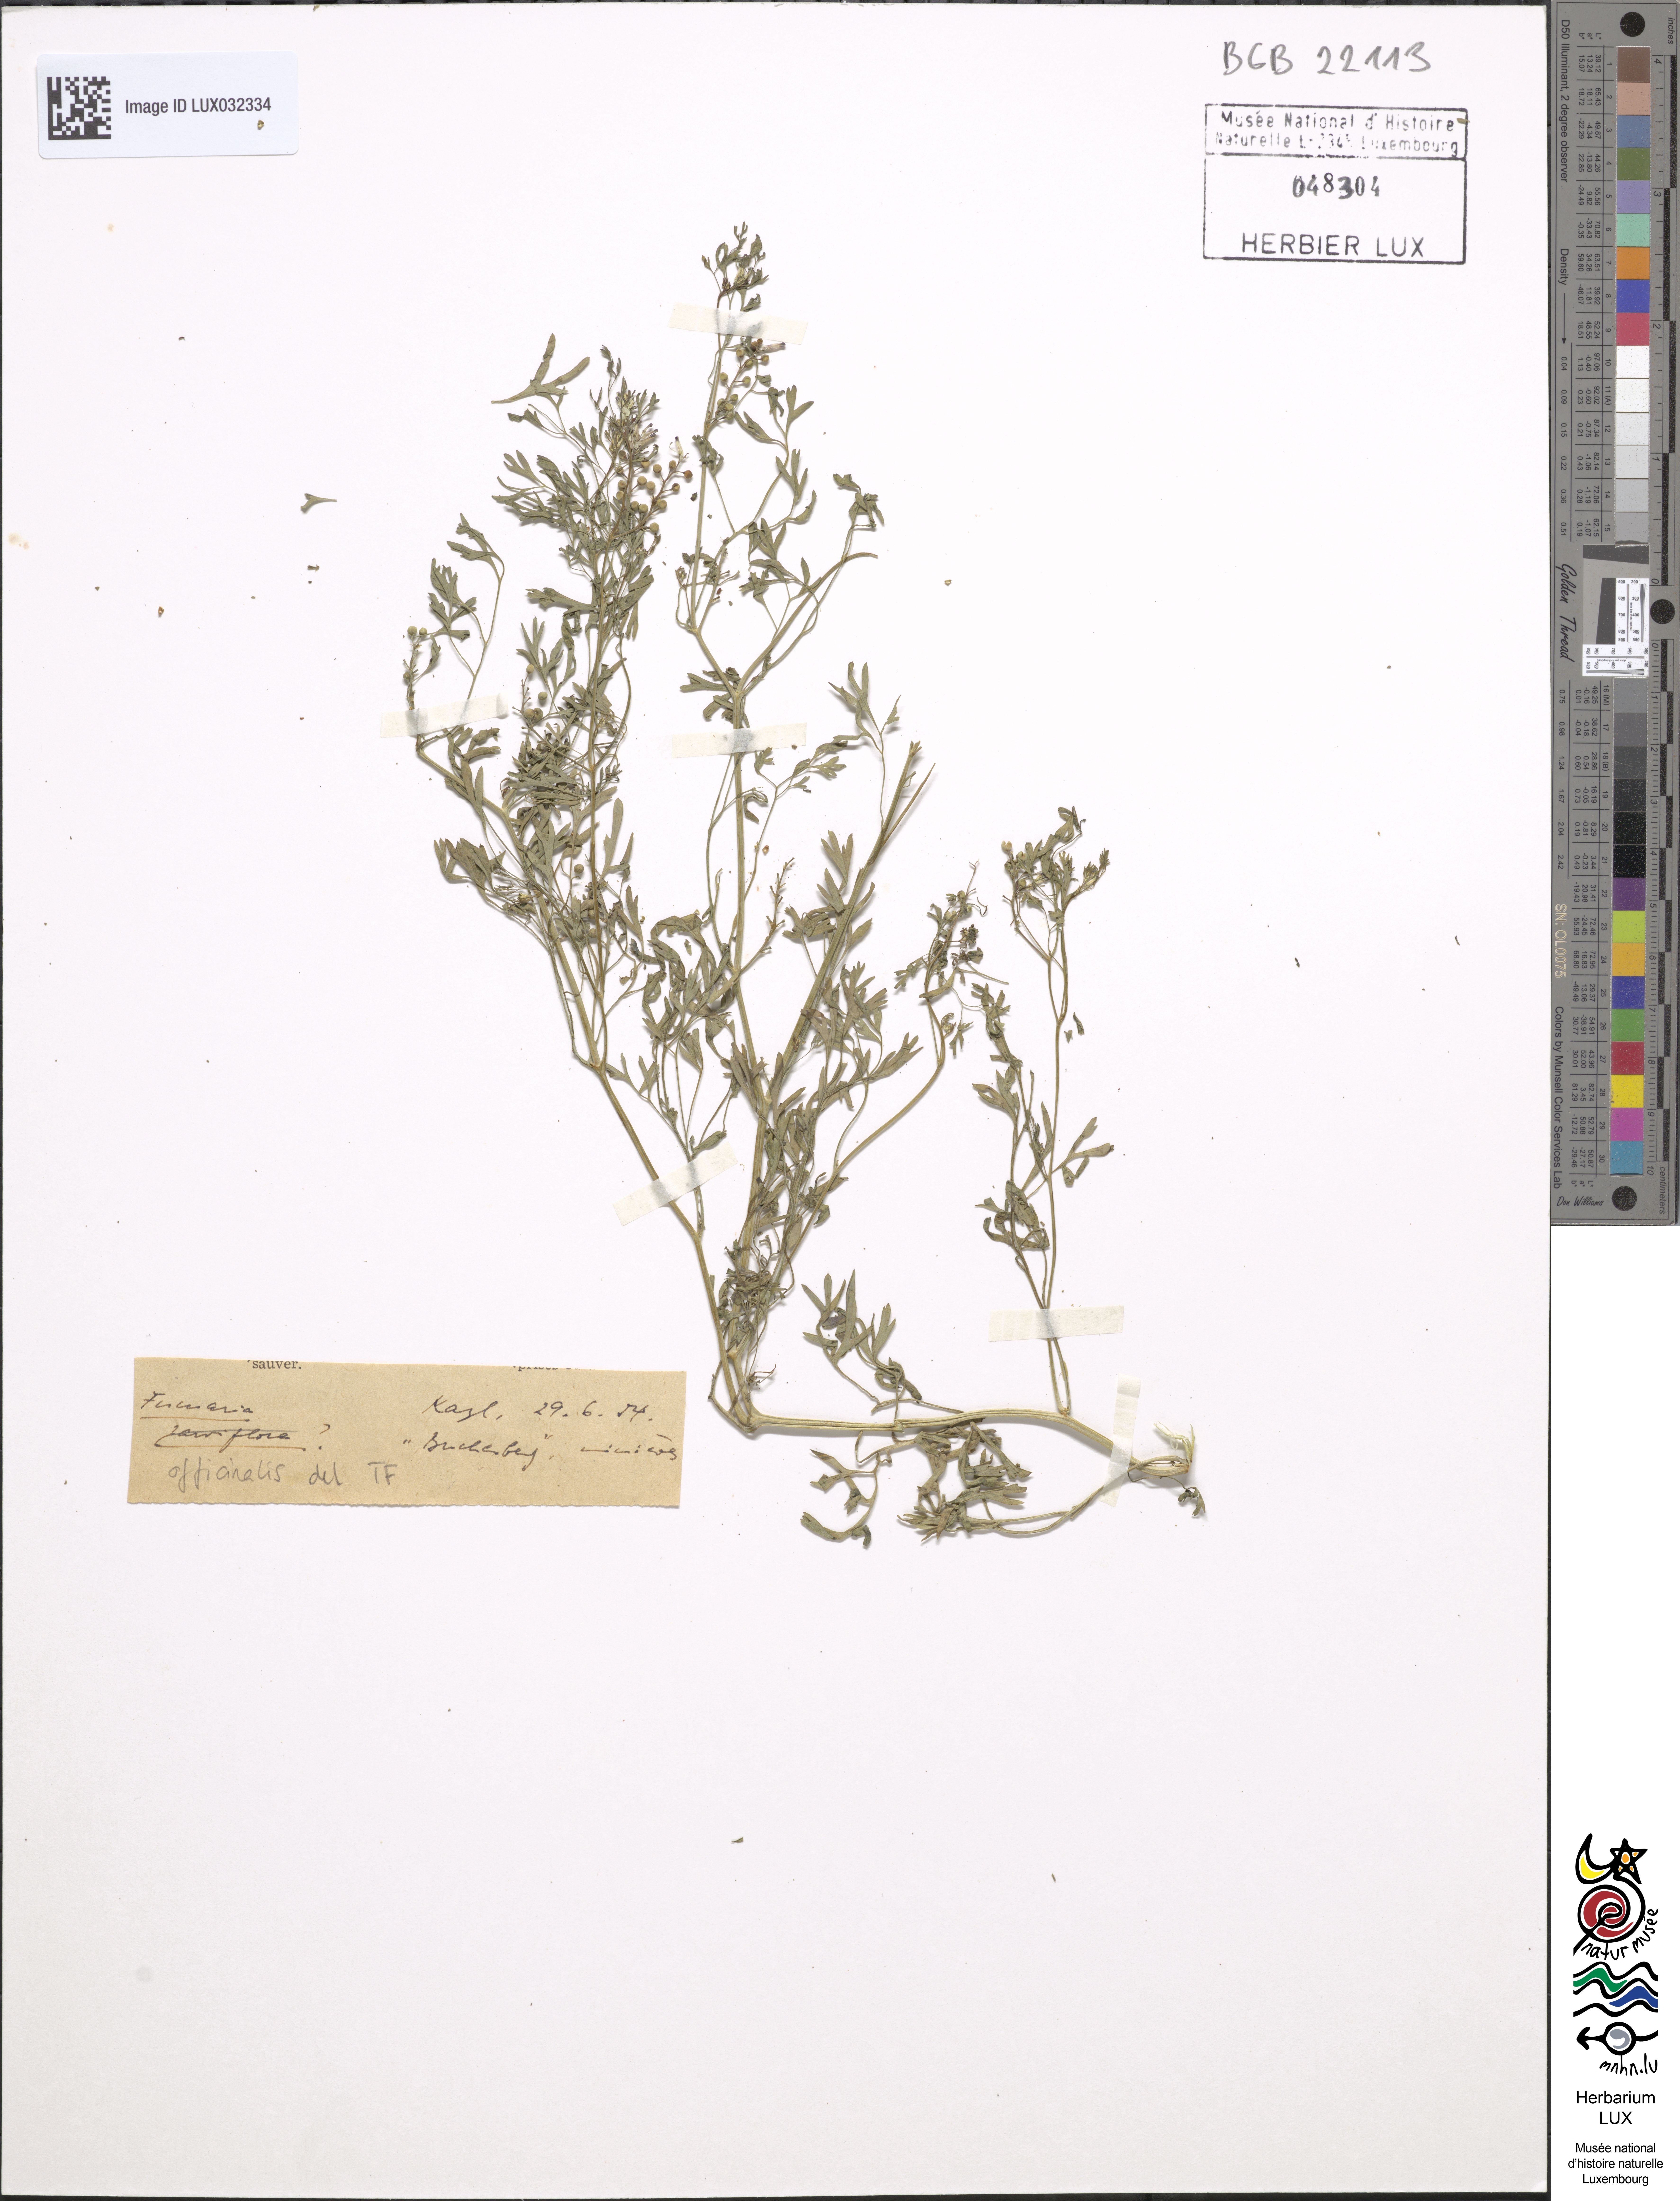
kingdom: Plantae
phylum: Tracheophyta
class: Magnoliopsida
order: Ranunculales
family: Papaveraceae
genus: Fumaria
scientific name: Fumaria officinalis
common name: Common fumitory
